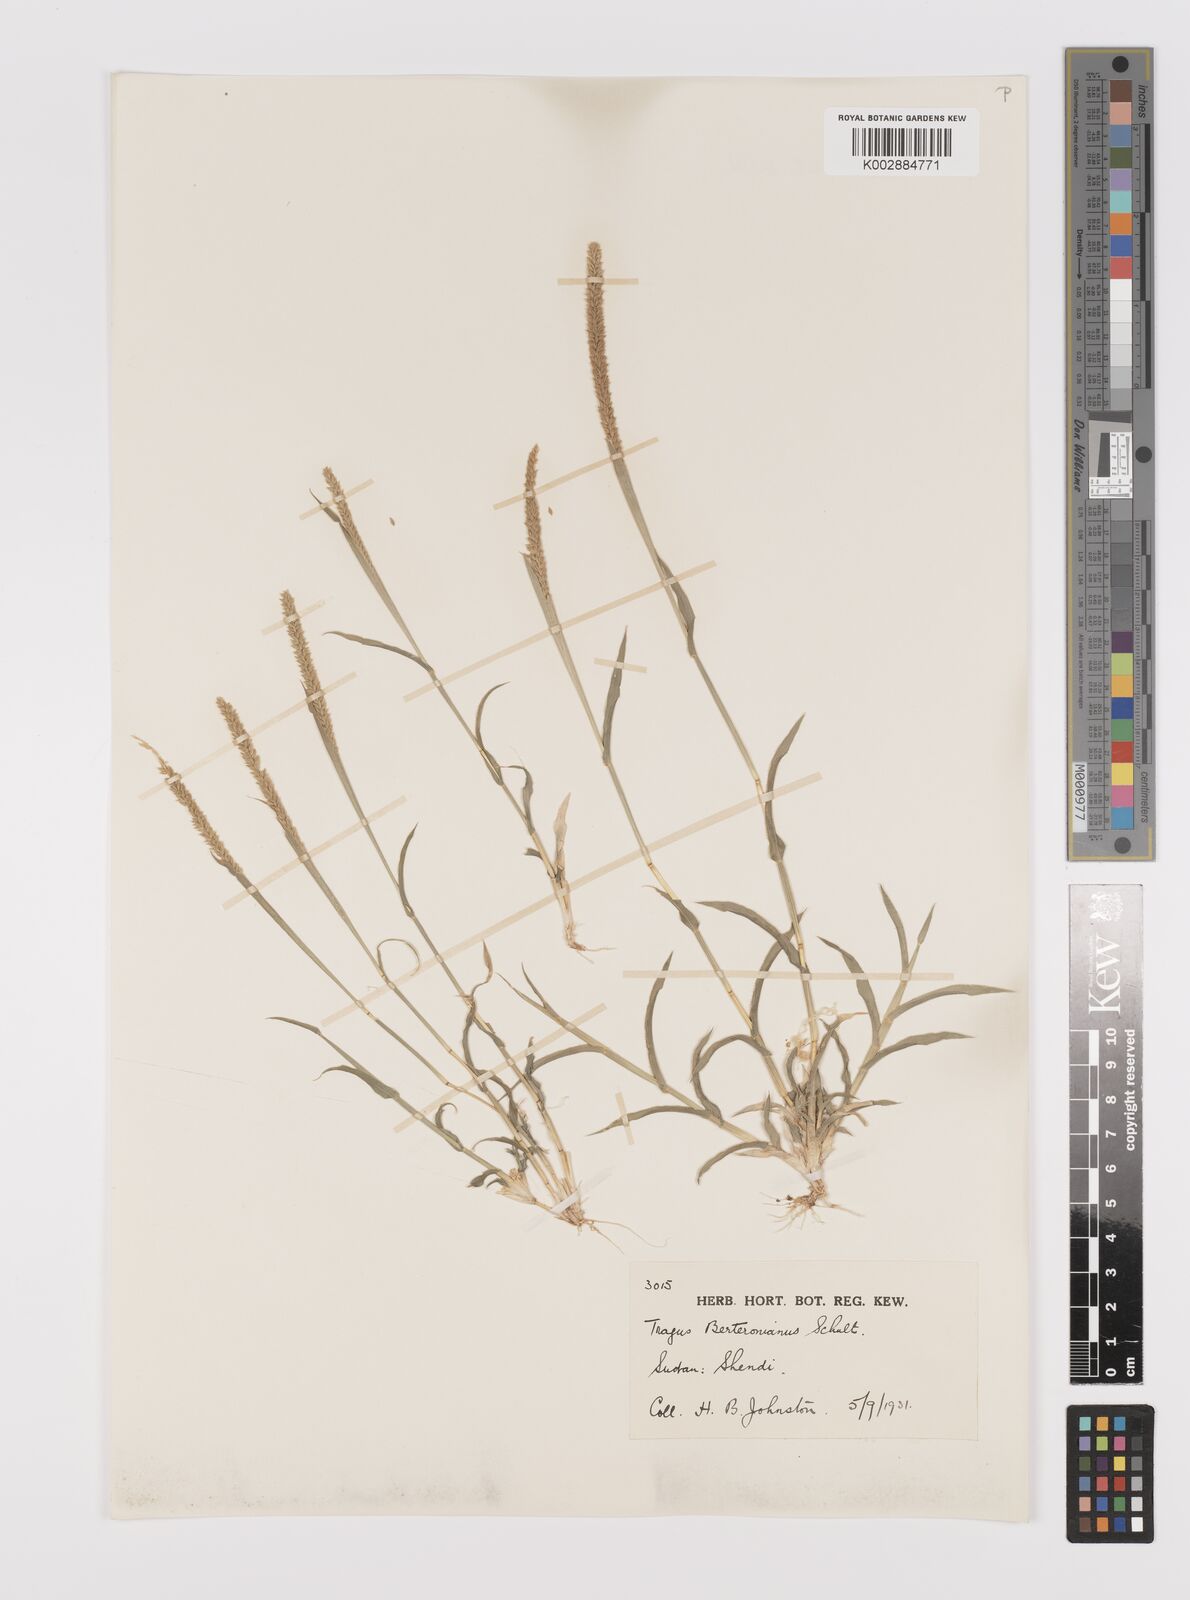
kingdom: Plantae
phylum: Tracheophyta
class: Liliopsida
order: Poales
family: Poaceae
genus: Tragus
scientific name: Tragus berteronianus
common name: African bur-grass
